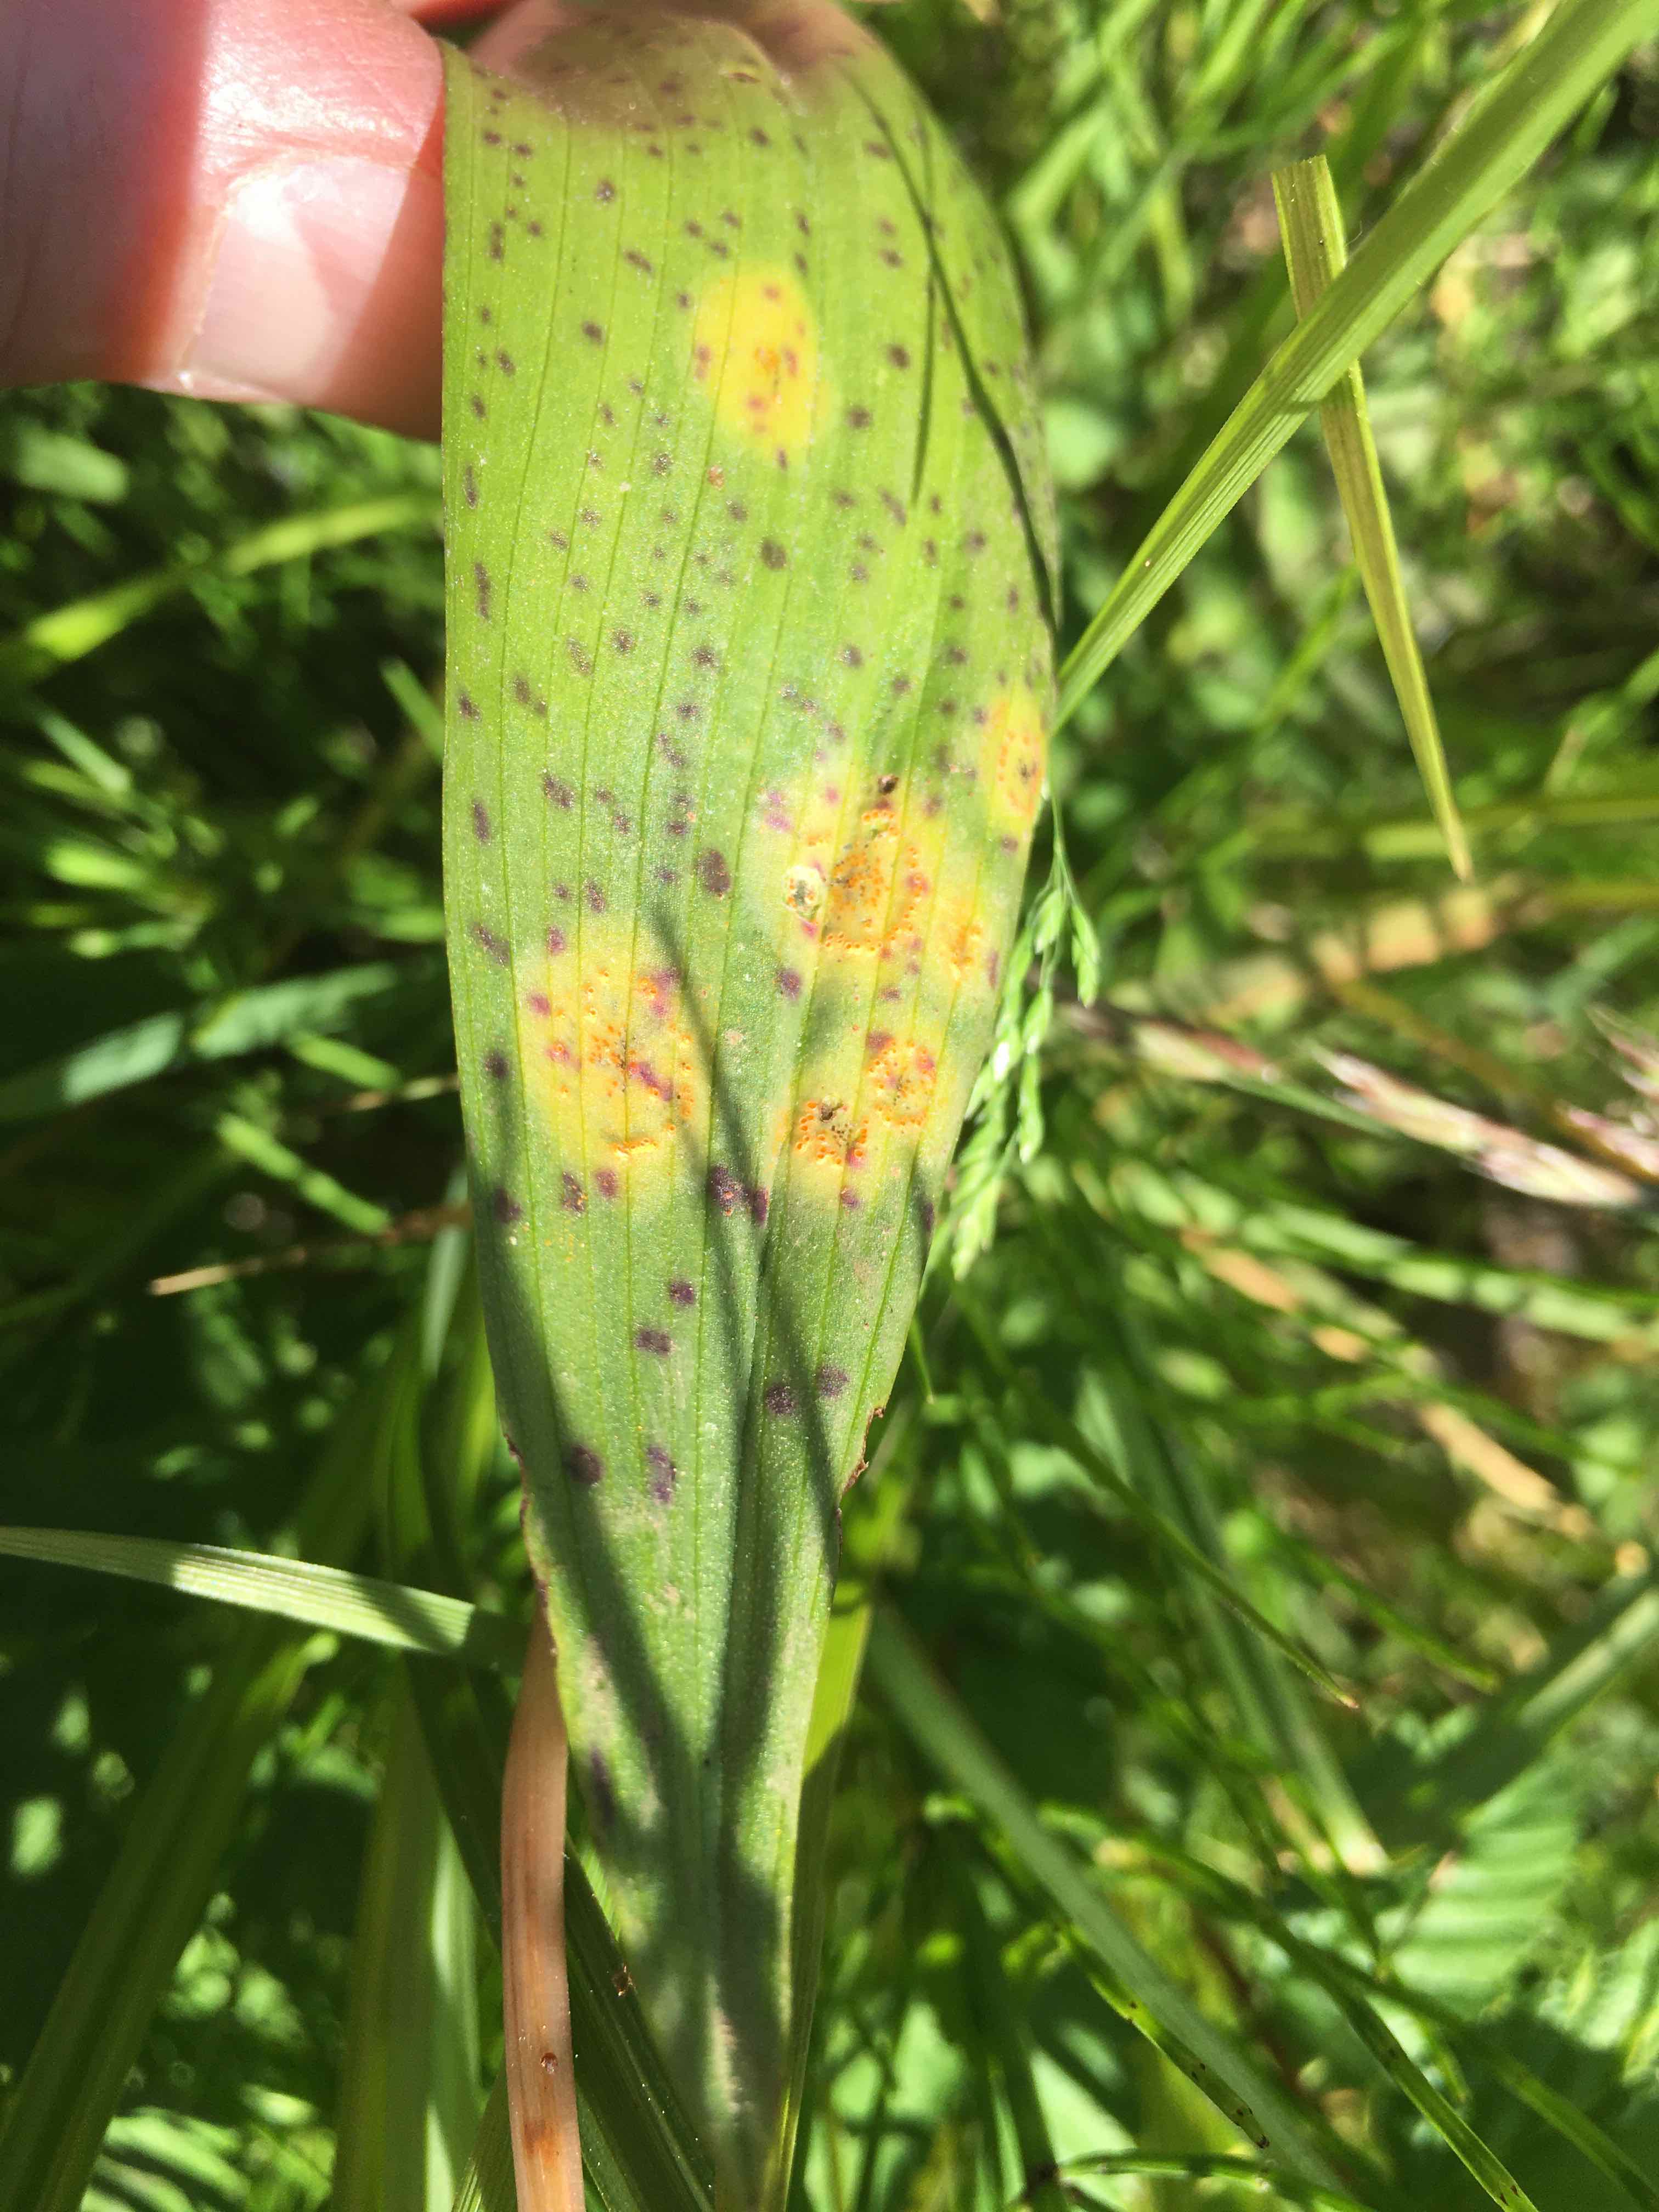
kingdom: Fungi
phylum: Basidiomycota
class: Pucciniomycetes
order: Pucciniales
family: Pucciniaceae
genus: Puccinia
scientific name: Puccinia sessilis
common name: Arum rust
